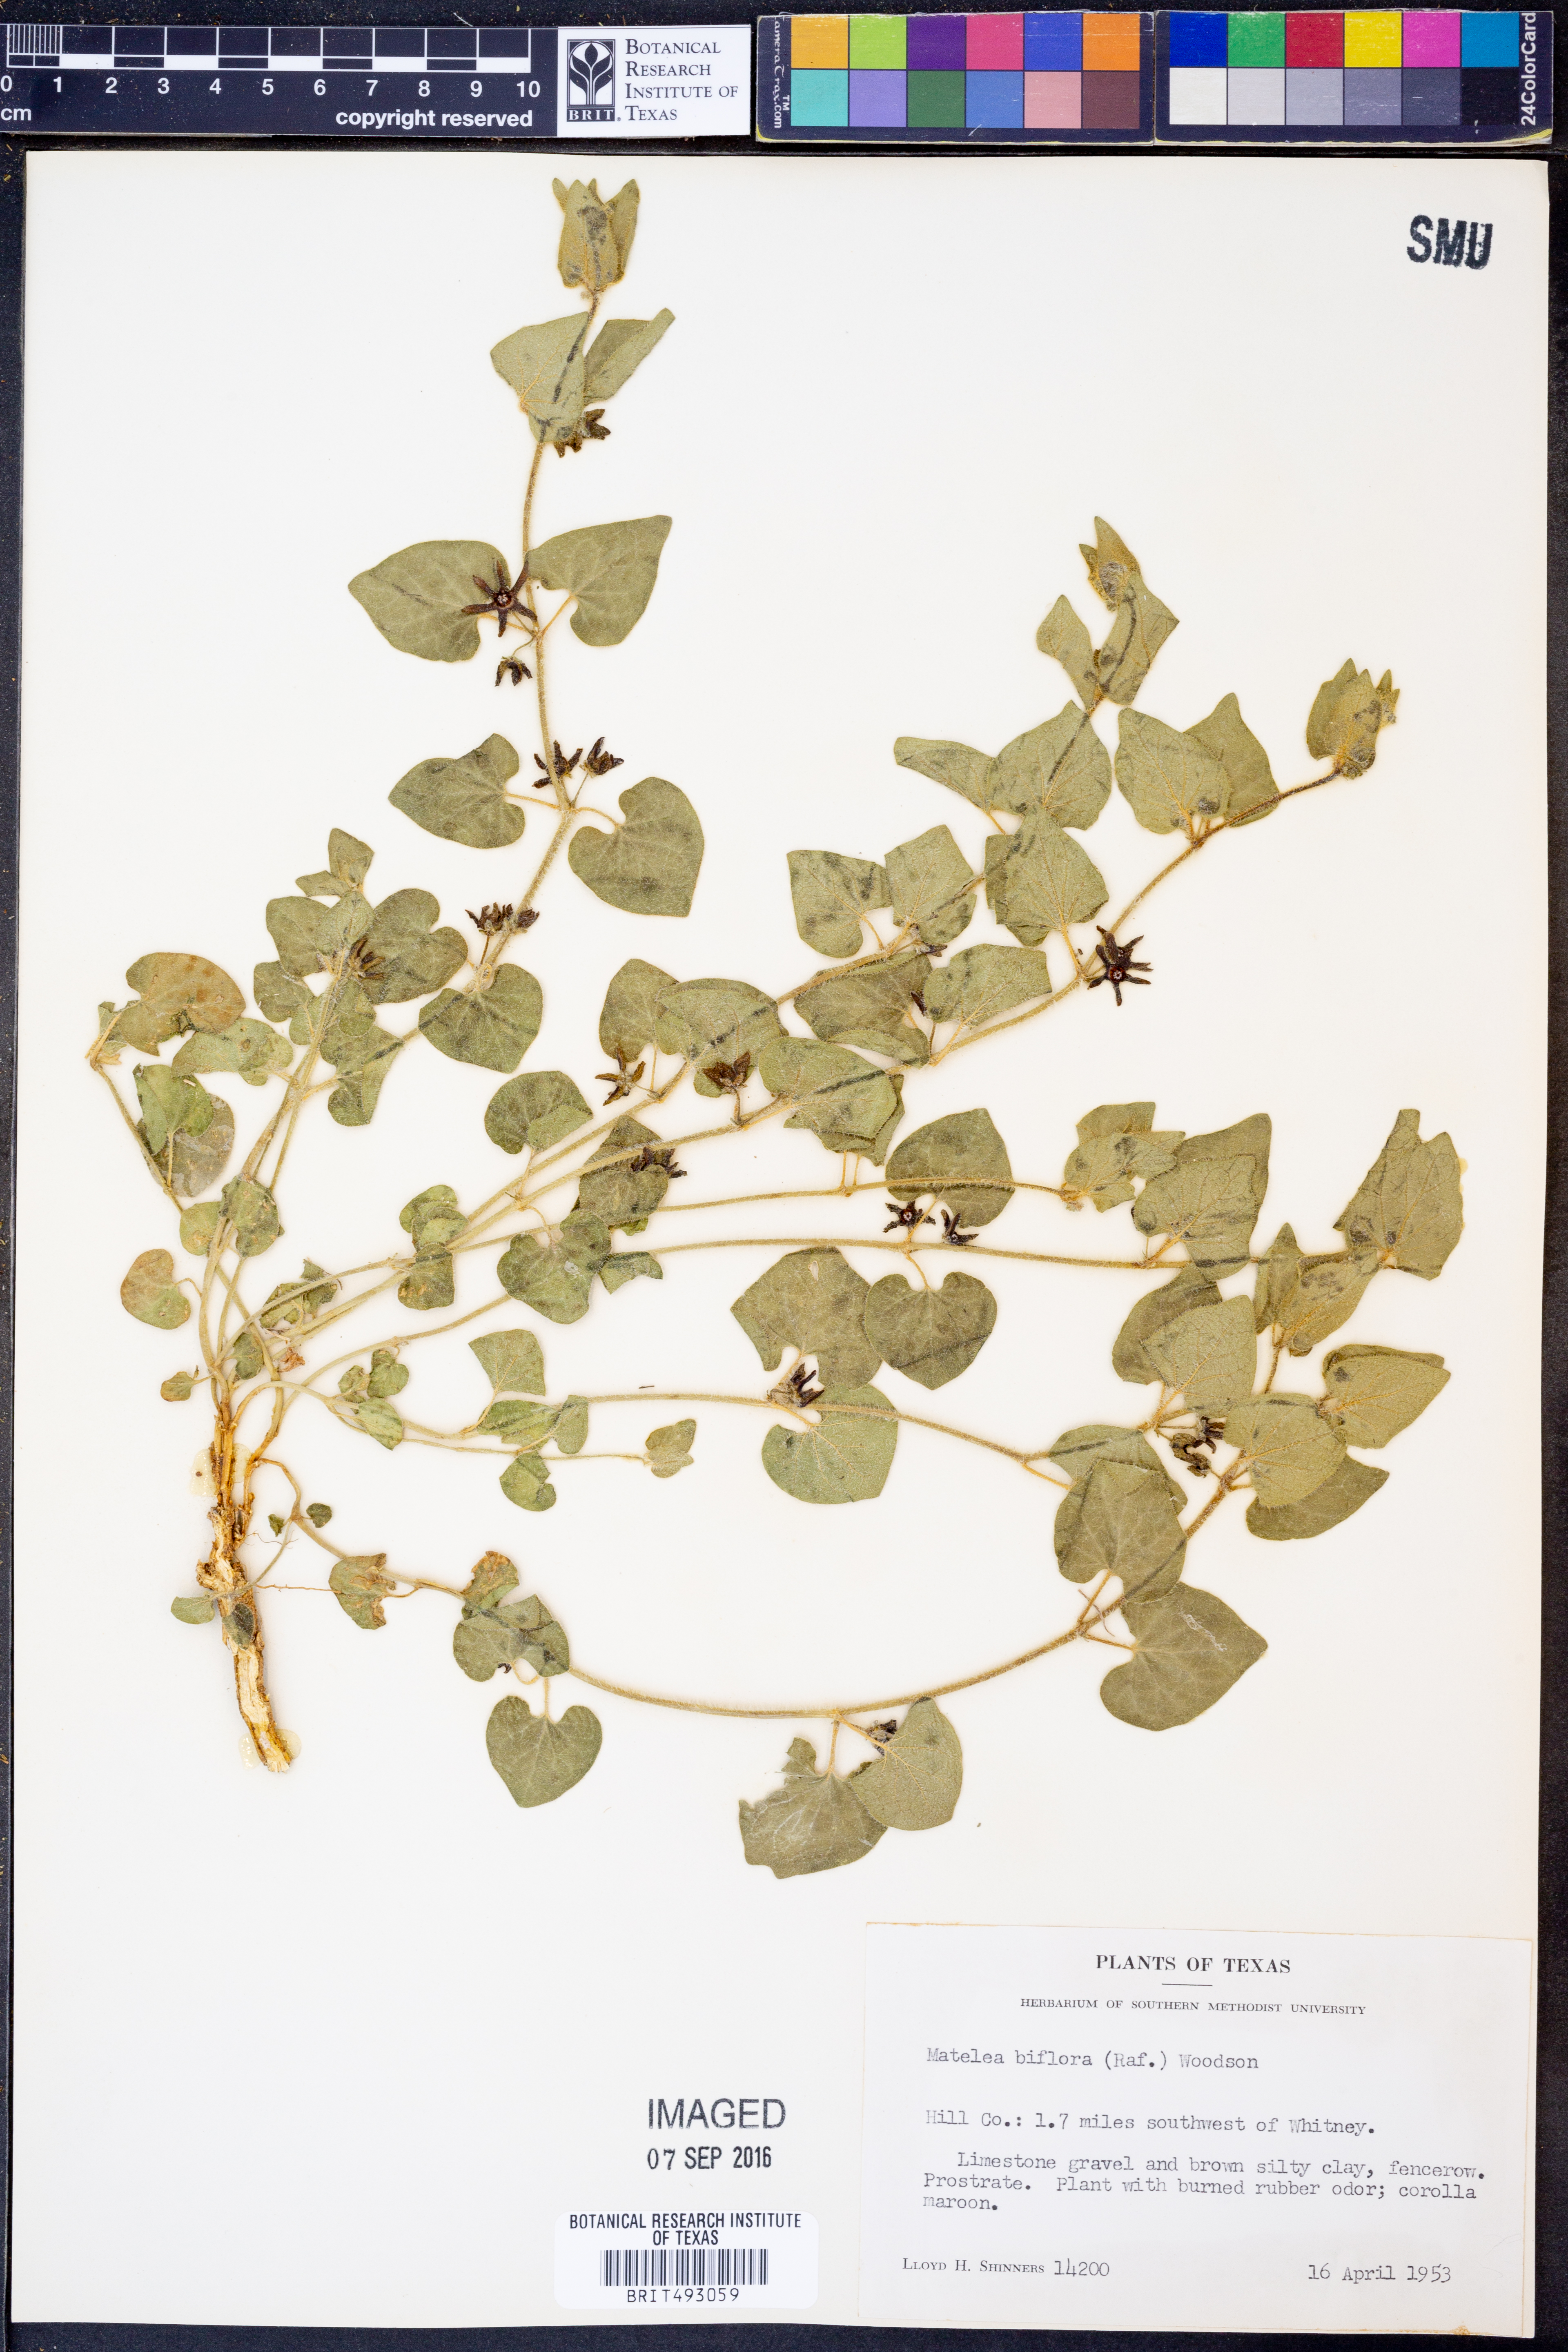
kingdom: Plantae
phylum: Tracheophyta
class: Magnoliopsida
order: Gentianales
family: Apocynaceae
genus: Chthamalia
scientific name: Chthamalia biflora
